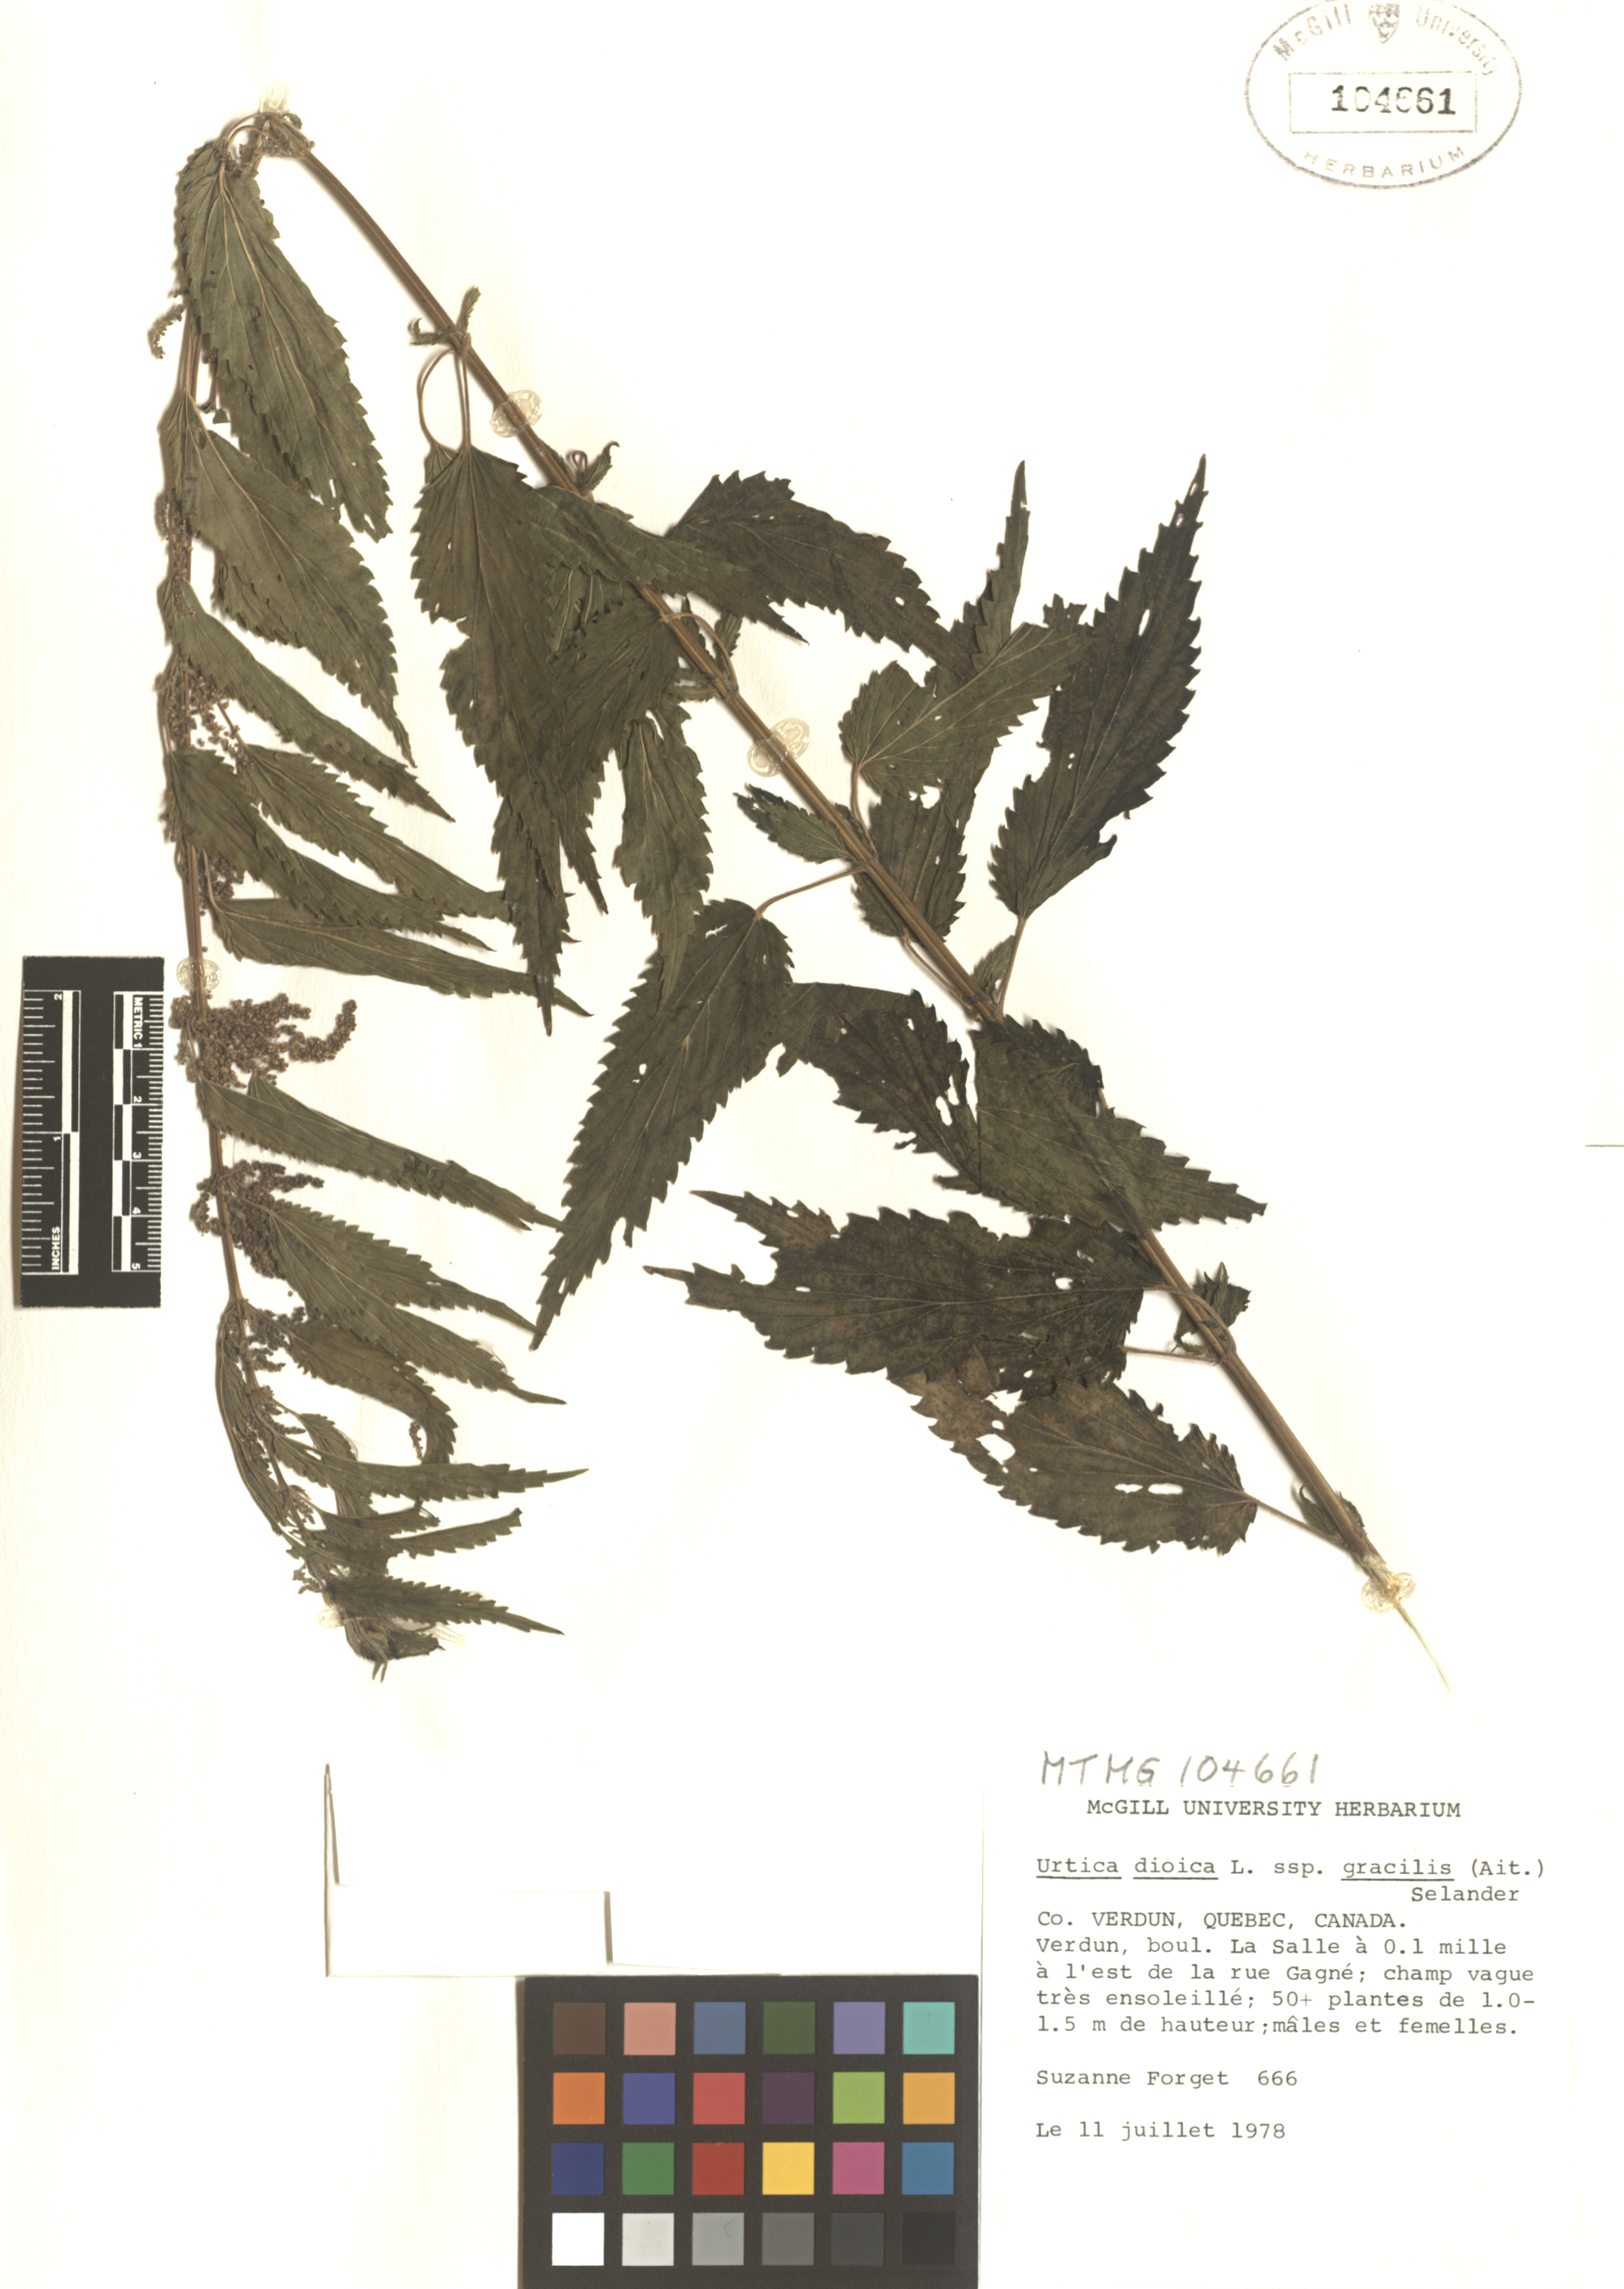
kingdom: Plantae
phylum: Tracheophyta
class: Magnoliopsida
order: Rosales
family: Urticaceae
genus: Urtica
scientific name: Urtica gracilis
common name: Slender stinging nettle
